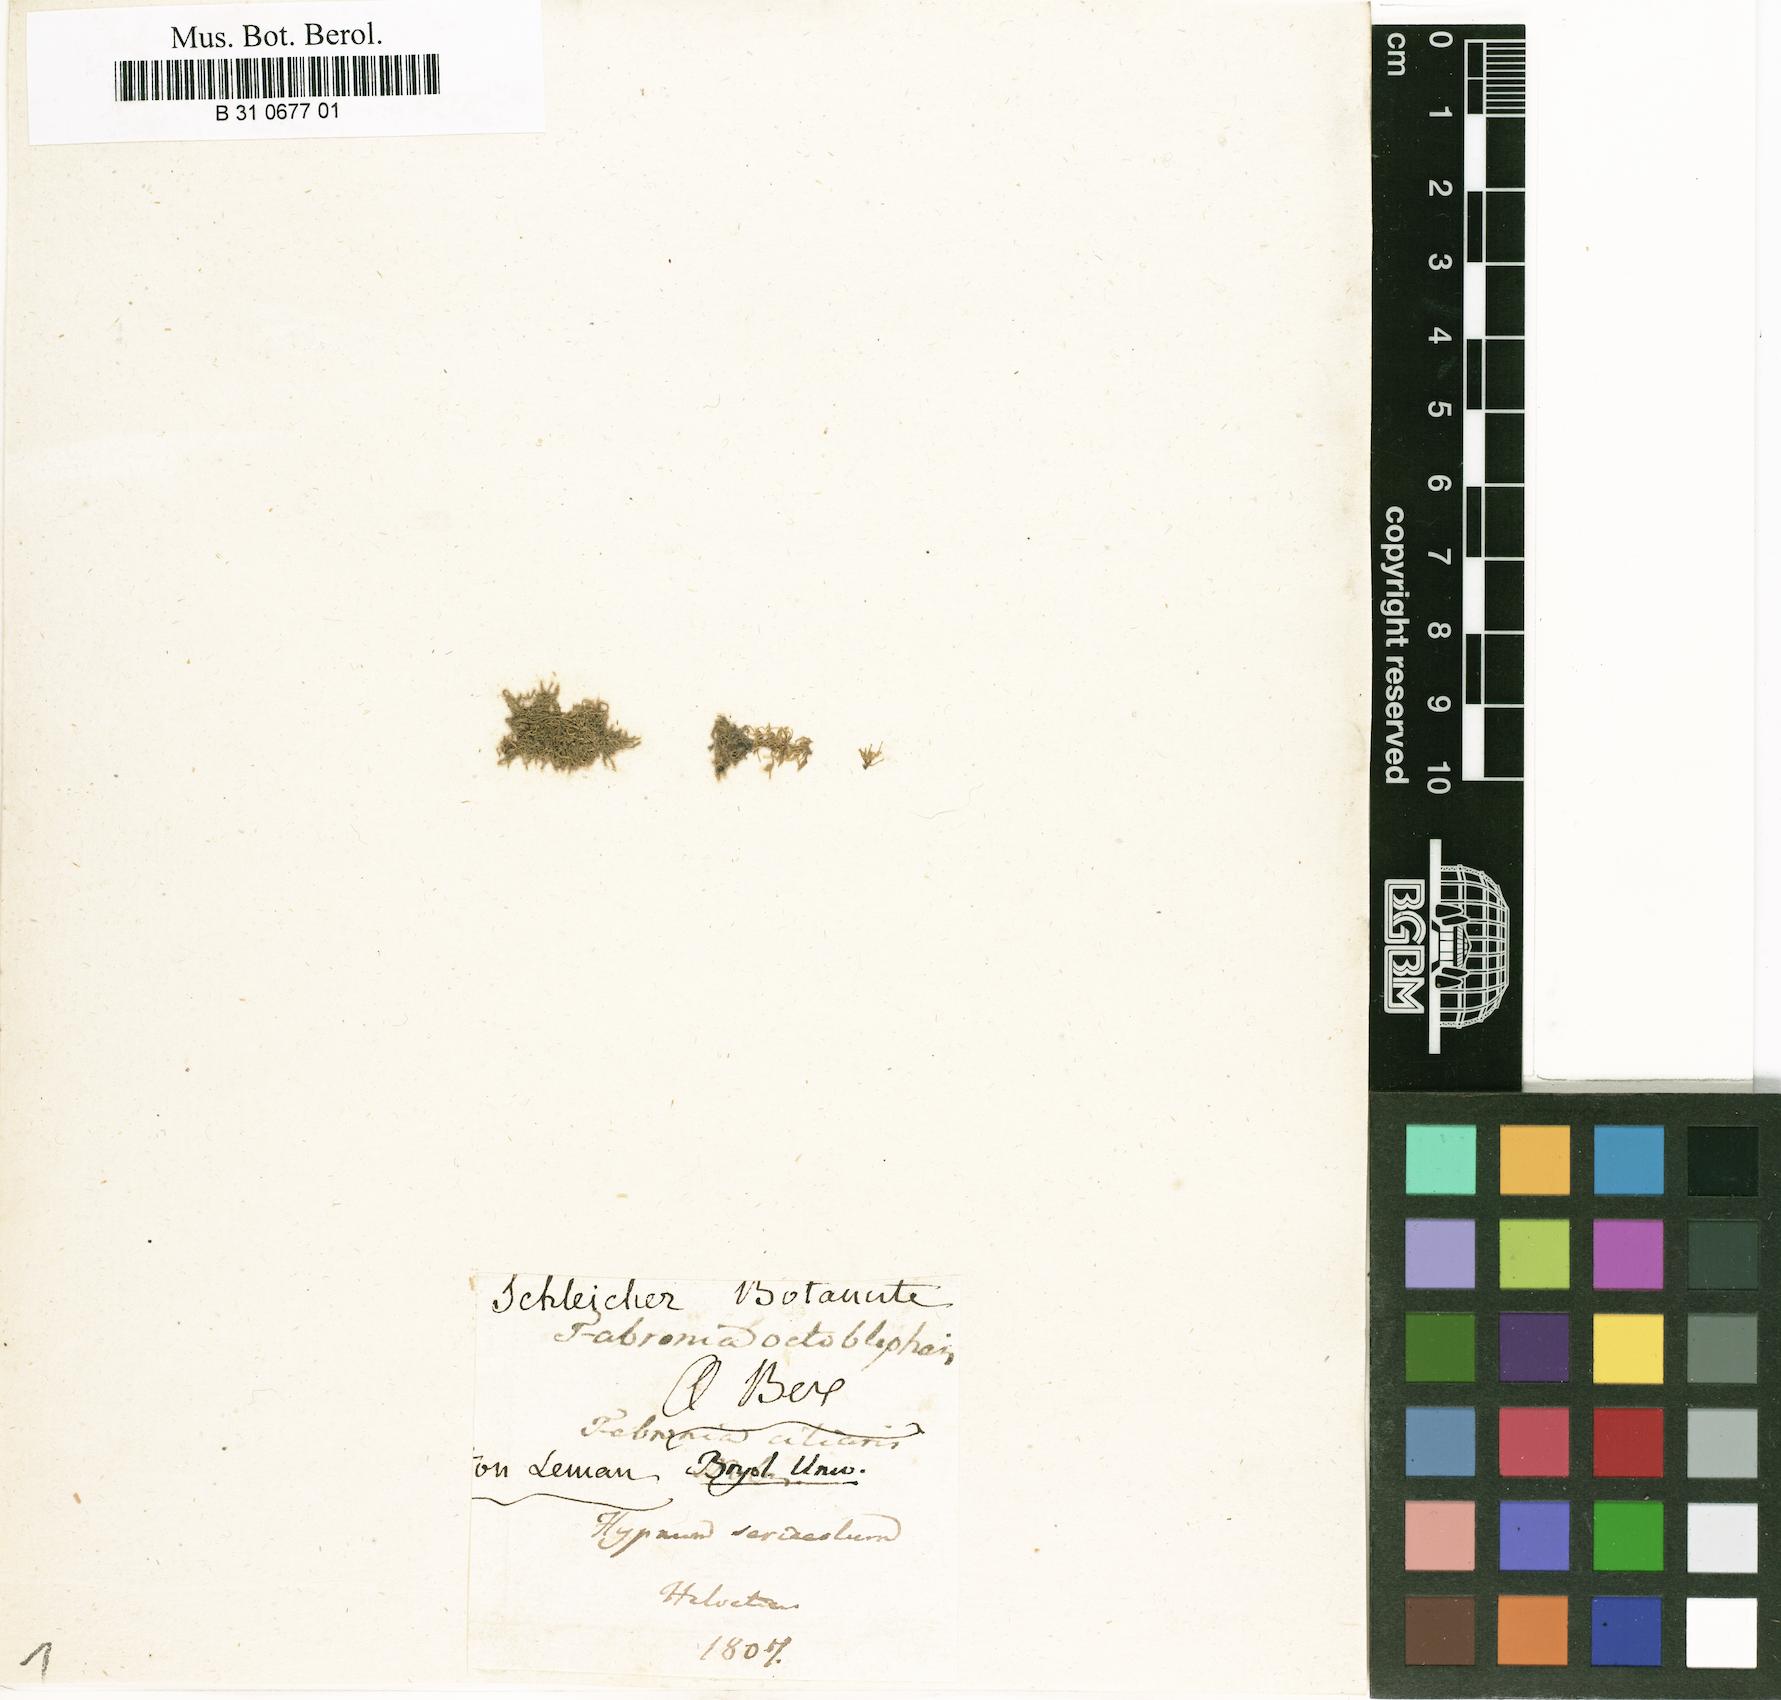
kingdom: Plantae
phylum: Bryophyta
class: Bryopsida
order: Hypnales
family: Fabroniaceae
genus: Fabronia
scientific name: Fabronia ciliaris
